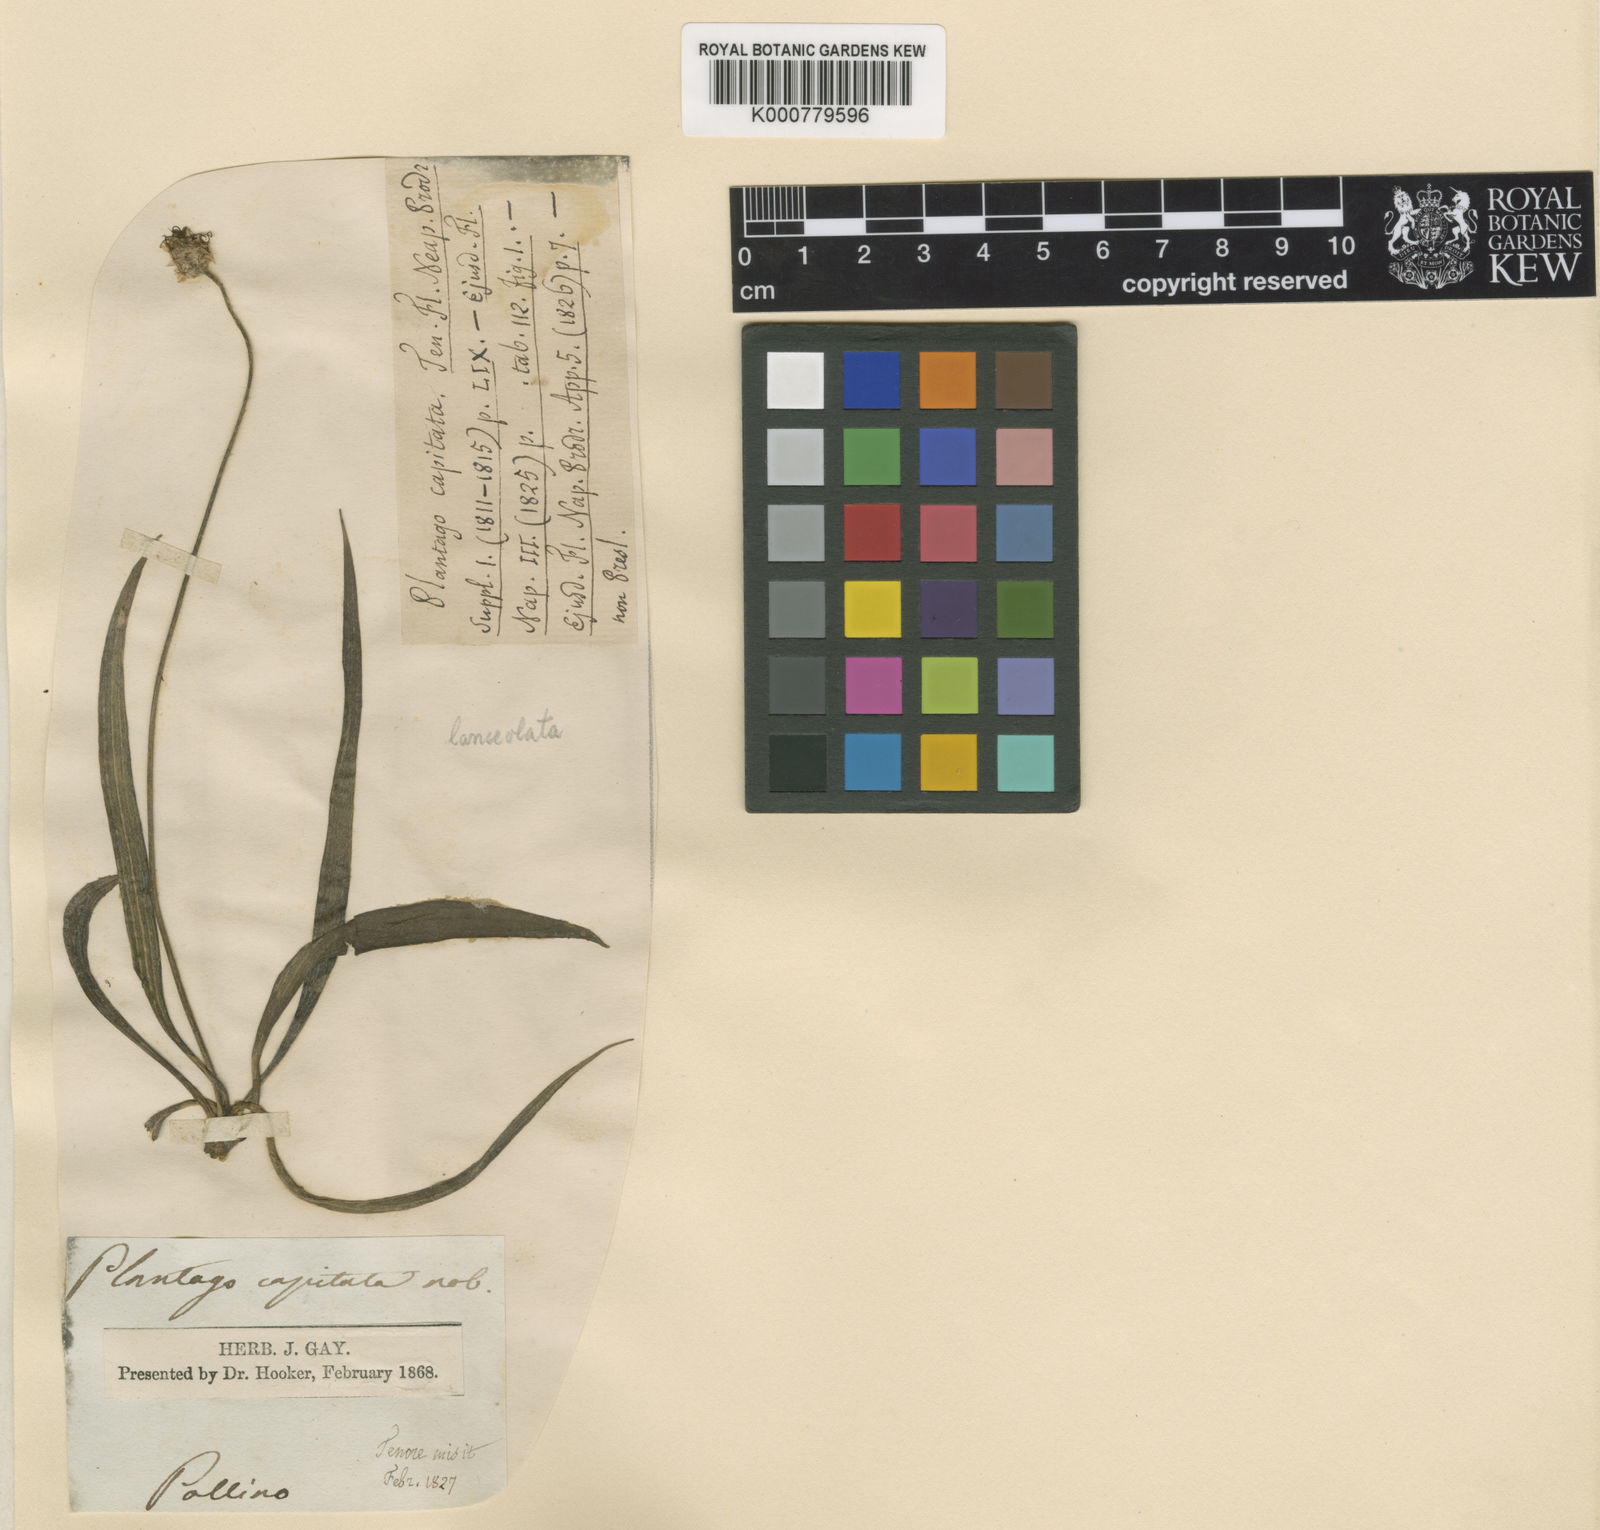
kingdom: Plantae
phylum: Tracheophyta
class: Magnoliopsida
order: Lamiales
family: Plantaginaceae
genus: Plantago
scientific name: Plantago lanceolata
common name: Ribwort plantain
